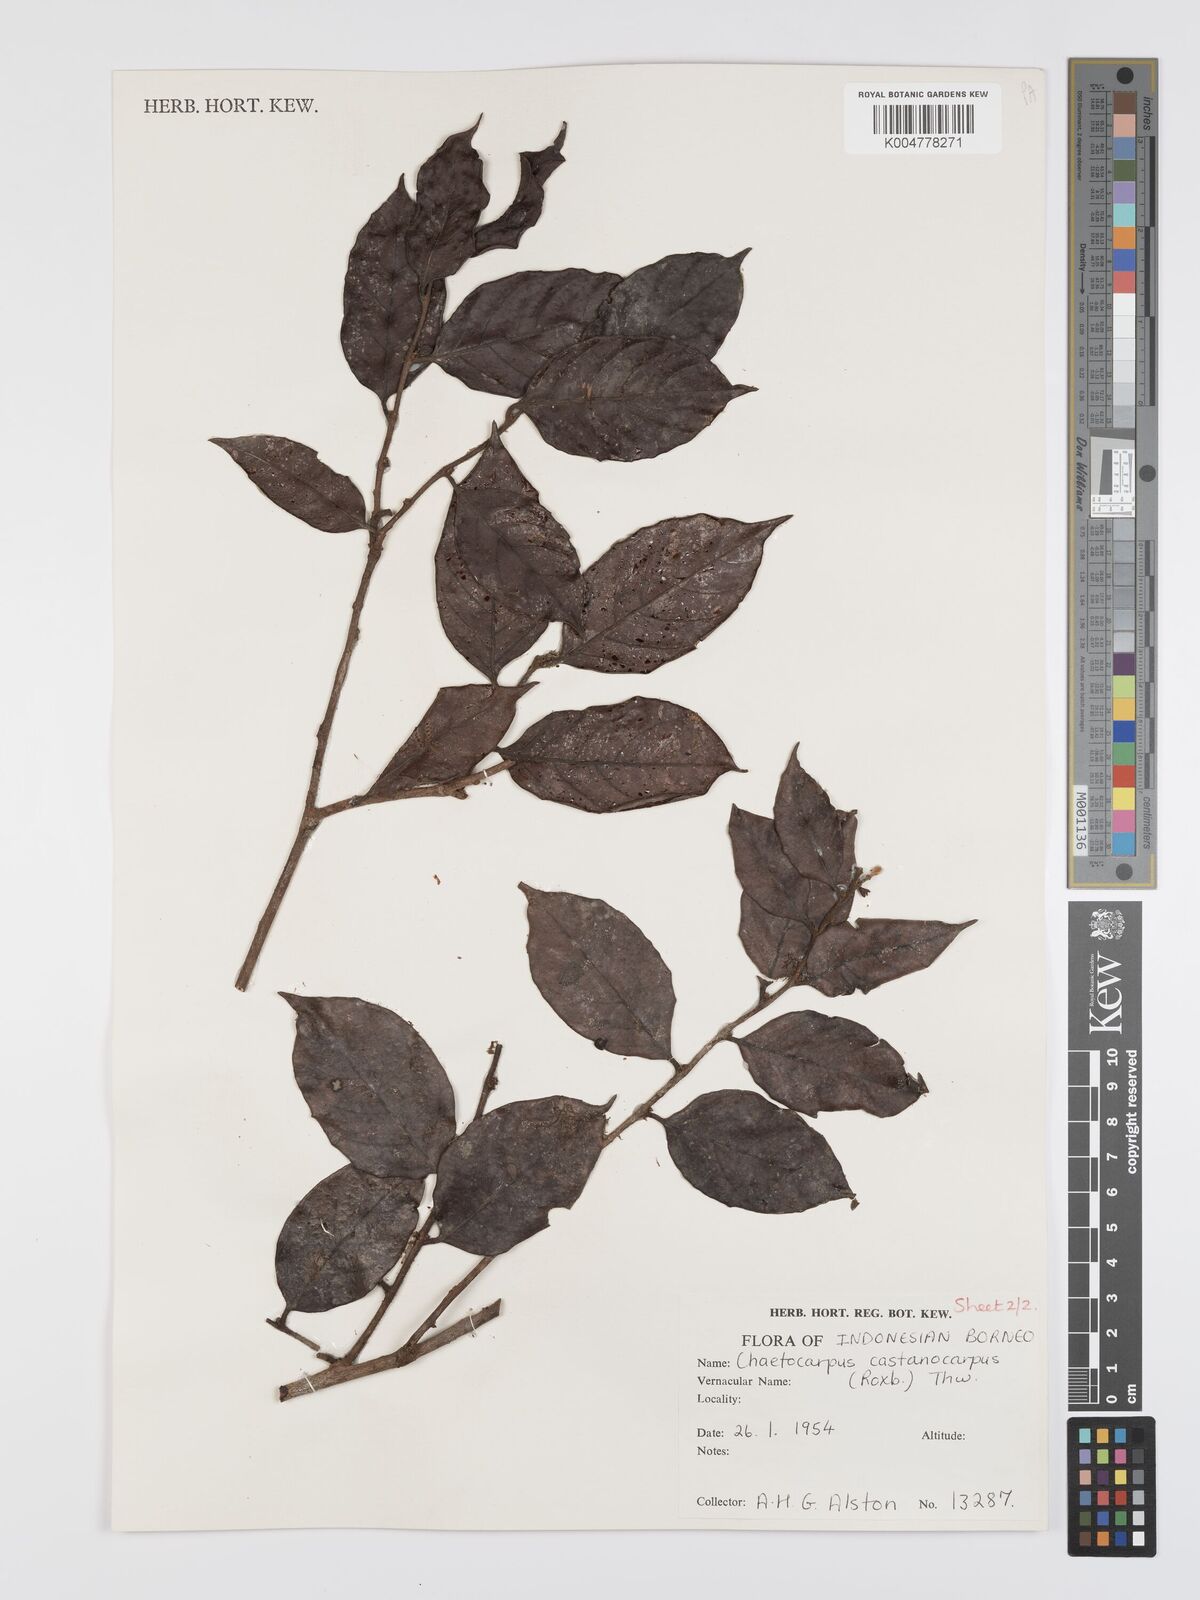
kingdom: Plantae
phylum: Tracheophyta
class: Magnoliopsida
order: Malpighiales
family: Peraceae
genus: Chaetocarpus
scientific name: Chaetocarpus castanocarpus
